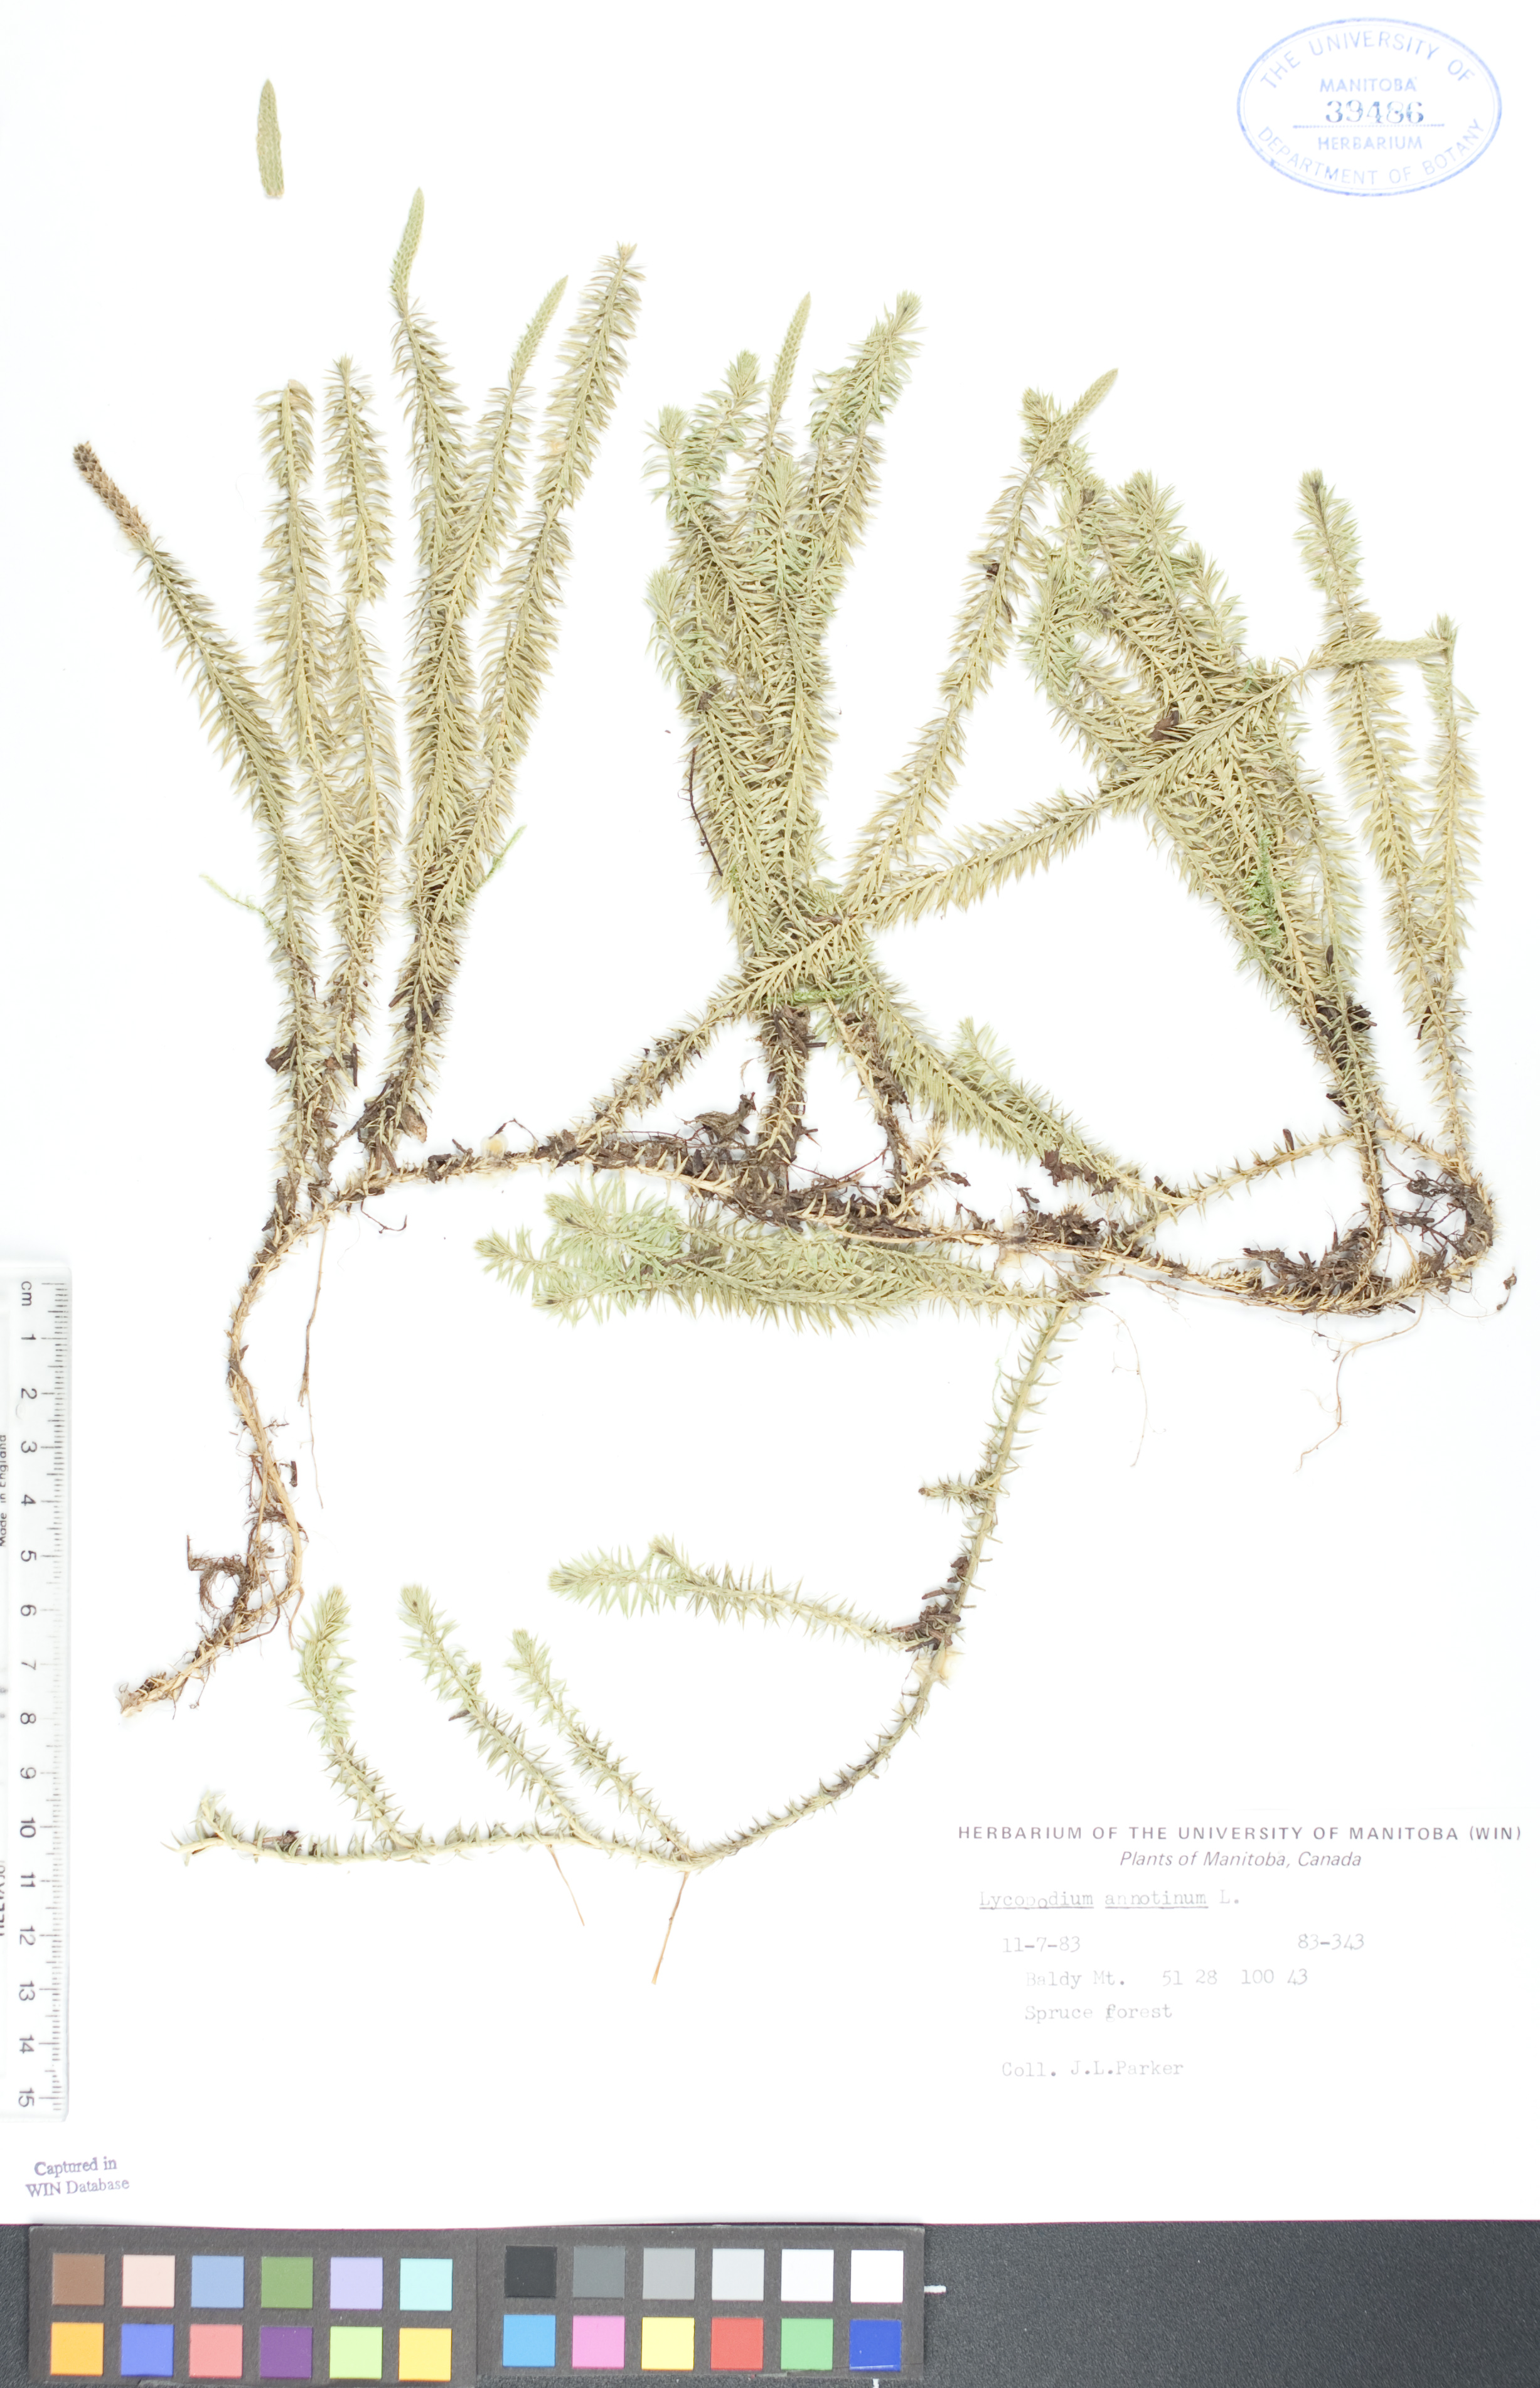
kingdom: Plantae
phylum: Tracheophyta
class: Lycopodiopsida
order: Lycopodiales
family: Lycopodiaceae
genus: Spinulum
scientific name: Spinulum annotinum
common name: Interrupted club-moss
